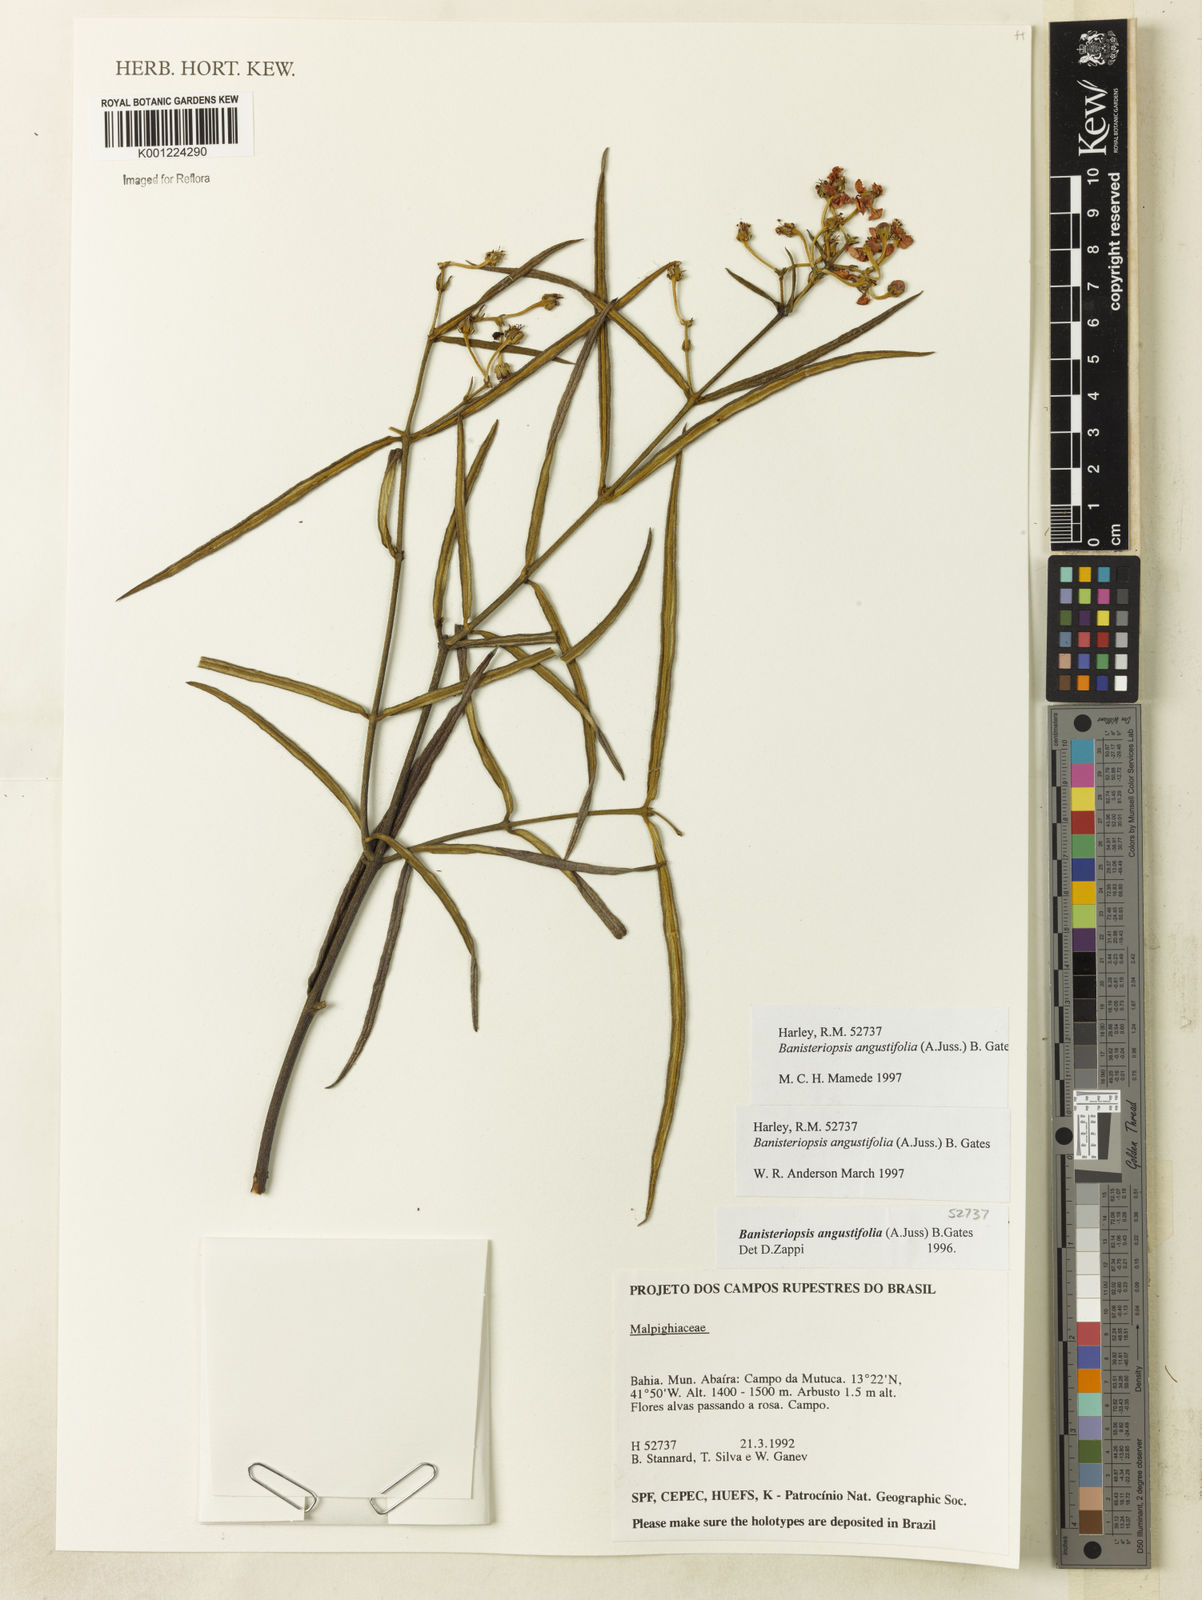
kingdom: Plantae
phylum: Tracheophyta
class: Magnoliopsida
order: Malpighiales
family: Malpighiaceae
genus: Banisteriopsis
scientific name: Banisteriopsis angustifolia
